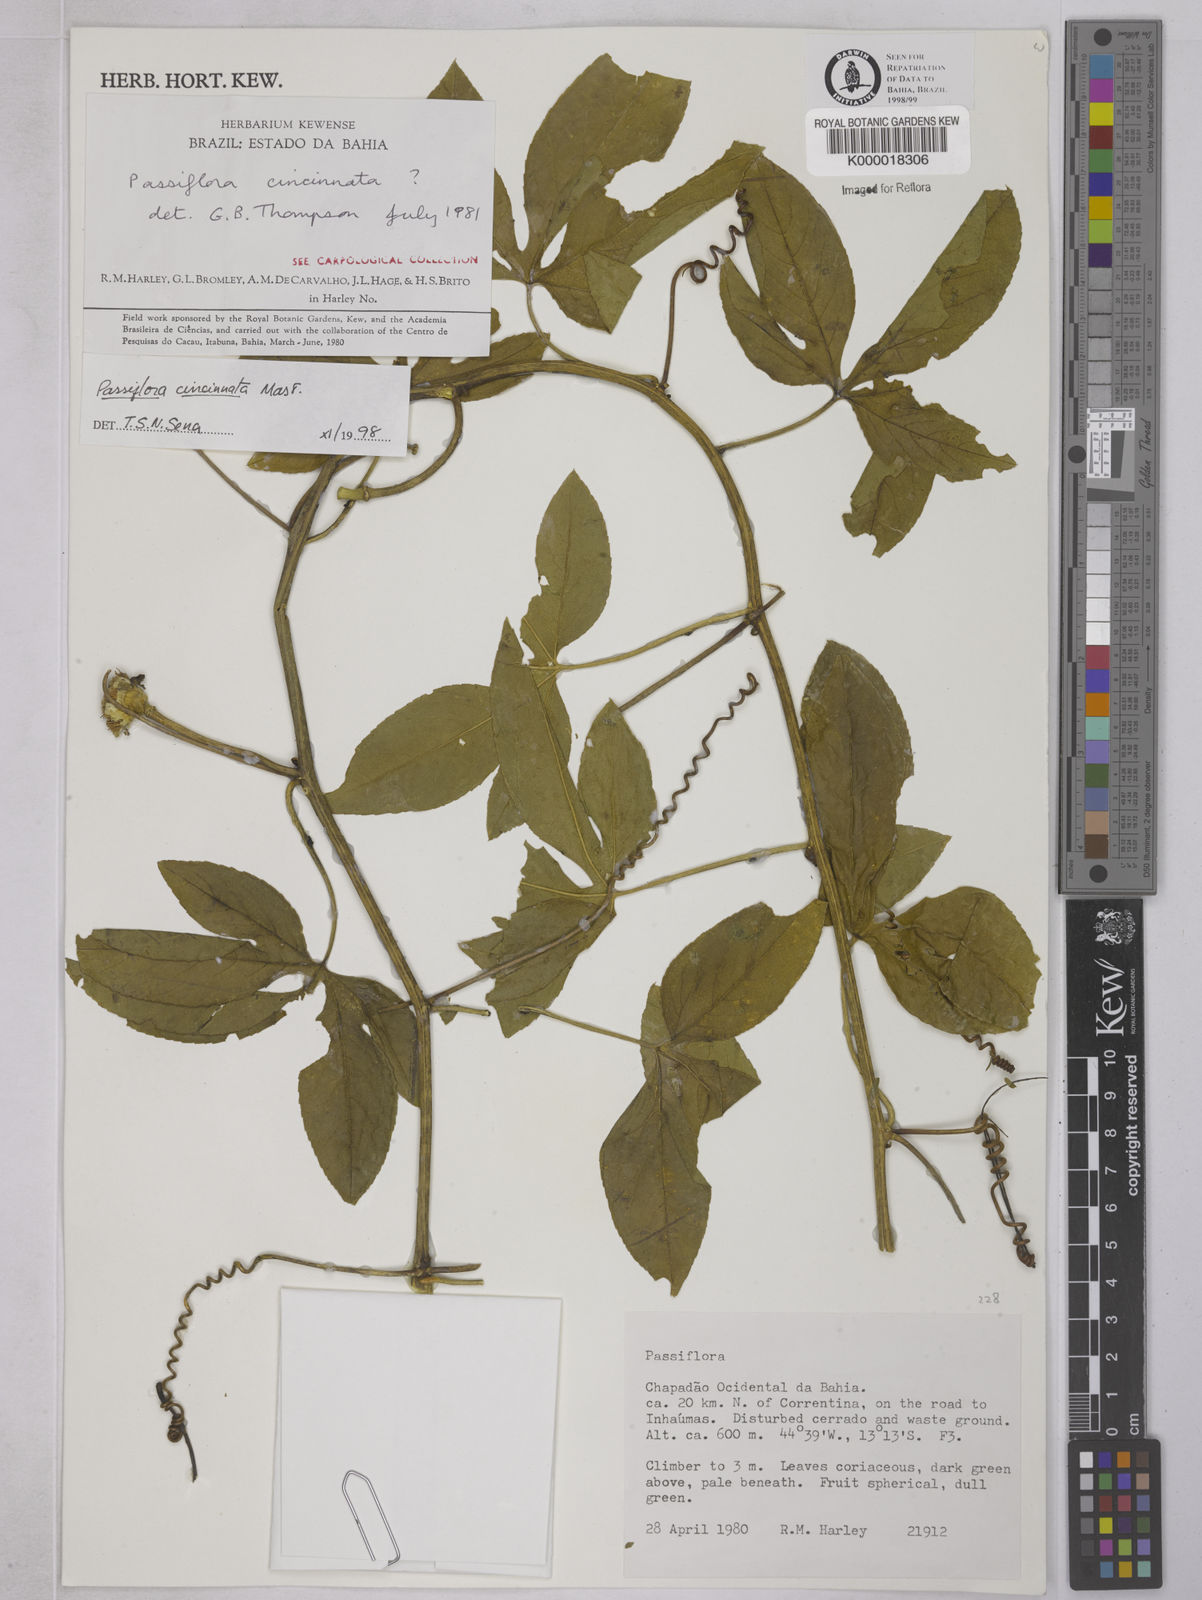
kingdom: Plantae
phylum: Tracheophyta
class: Magnoliopsida
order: Malpighiales
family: Passifloraceae
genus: Passiflora
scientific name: Passiflora cincinnata
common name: Crato passionvine
